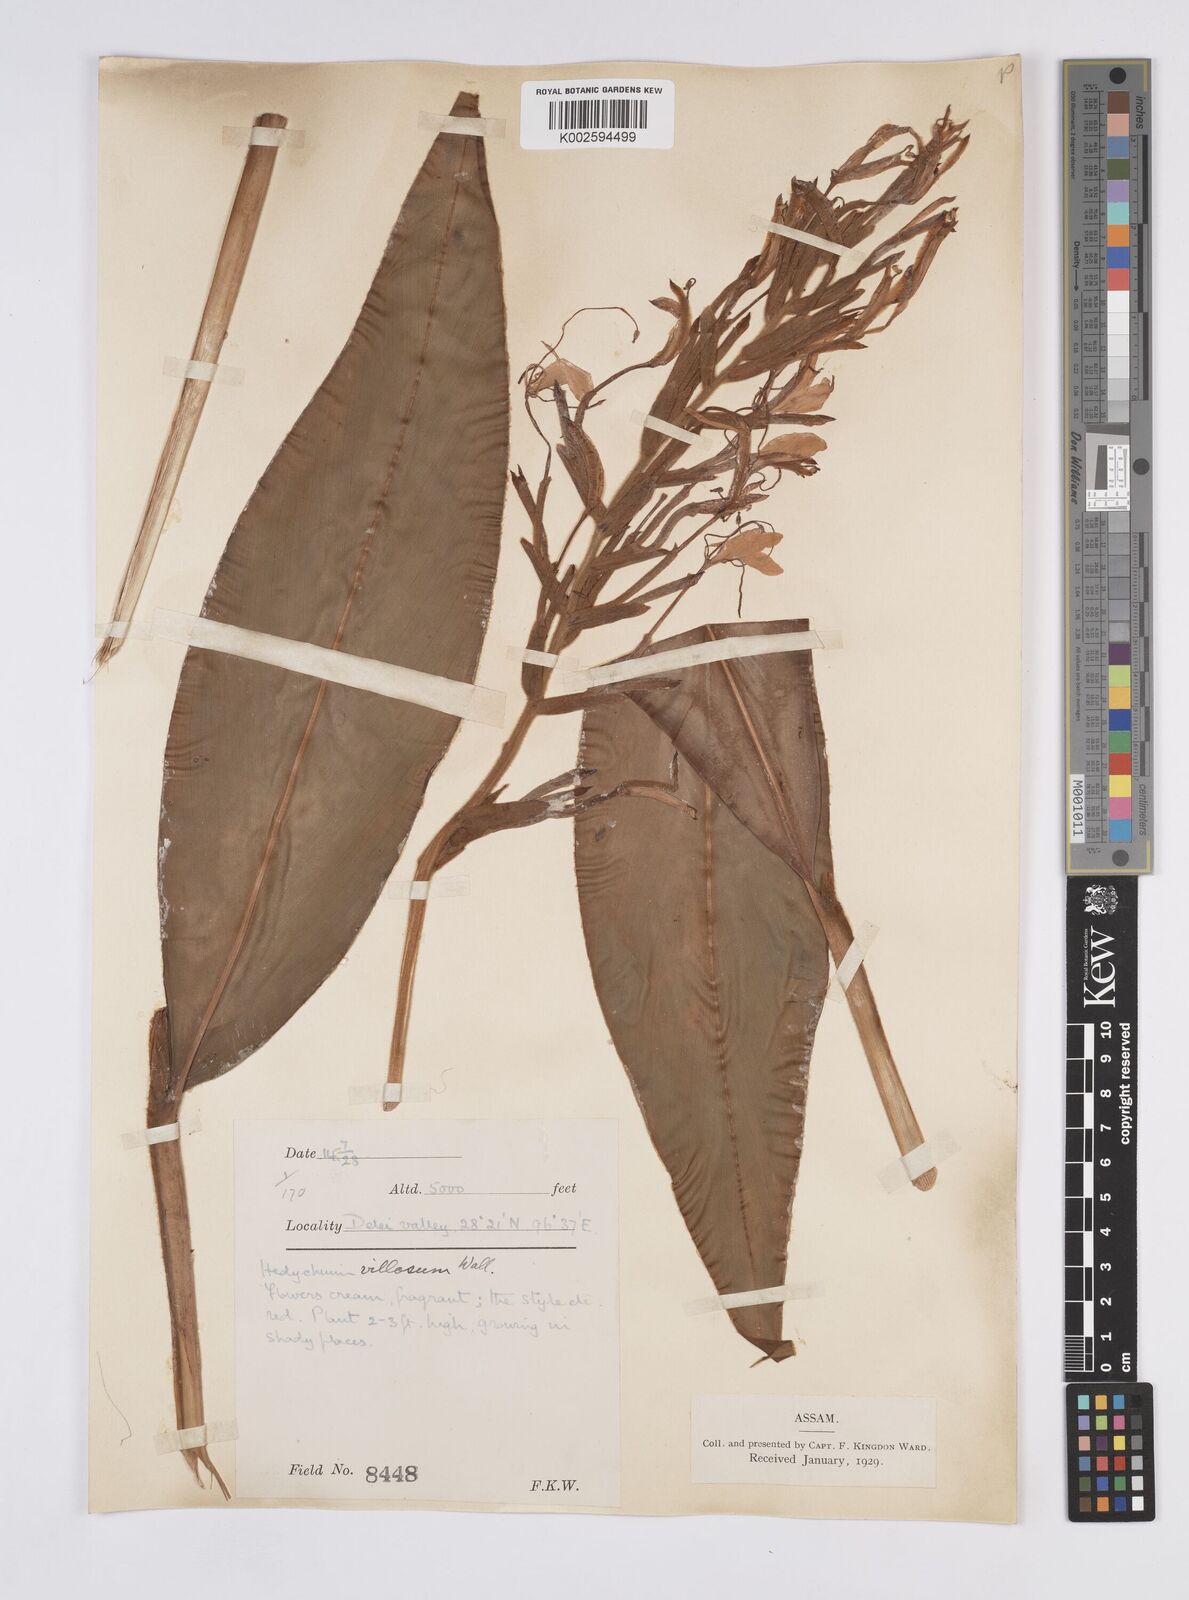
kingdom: Plantae
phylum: Tracheophyta
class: Liliopsida
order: Zingiberales
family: Zingiberaceae
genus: Hedychium
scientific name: Hedychium villosum
